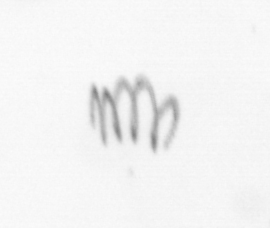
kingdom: Chromista
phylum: Ochrophyta
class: Bacillariophyceae
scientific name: Bacillariophyceae
